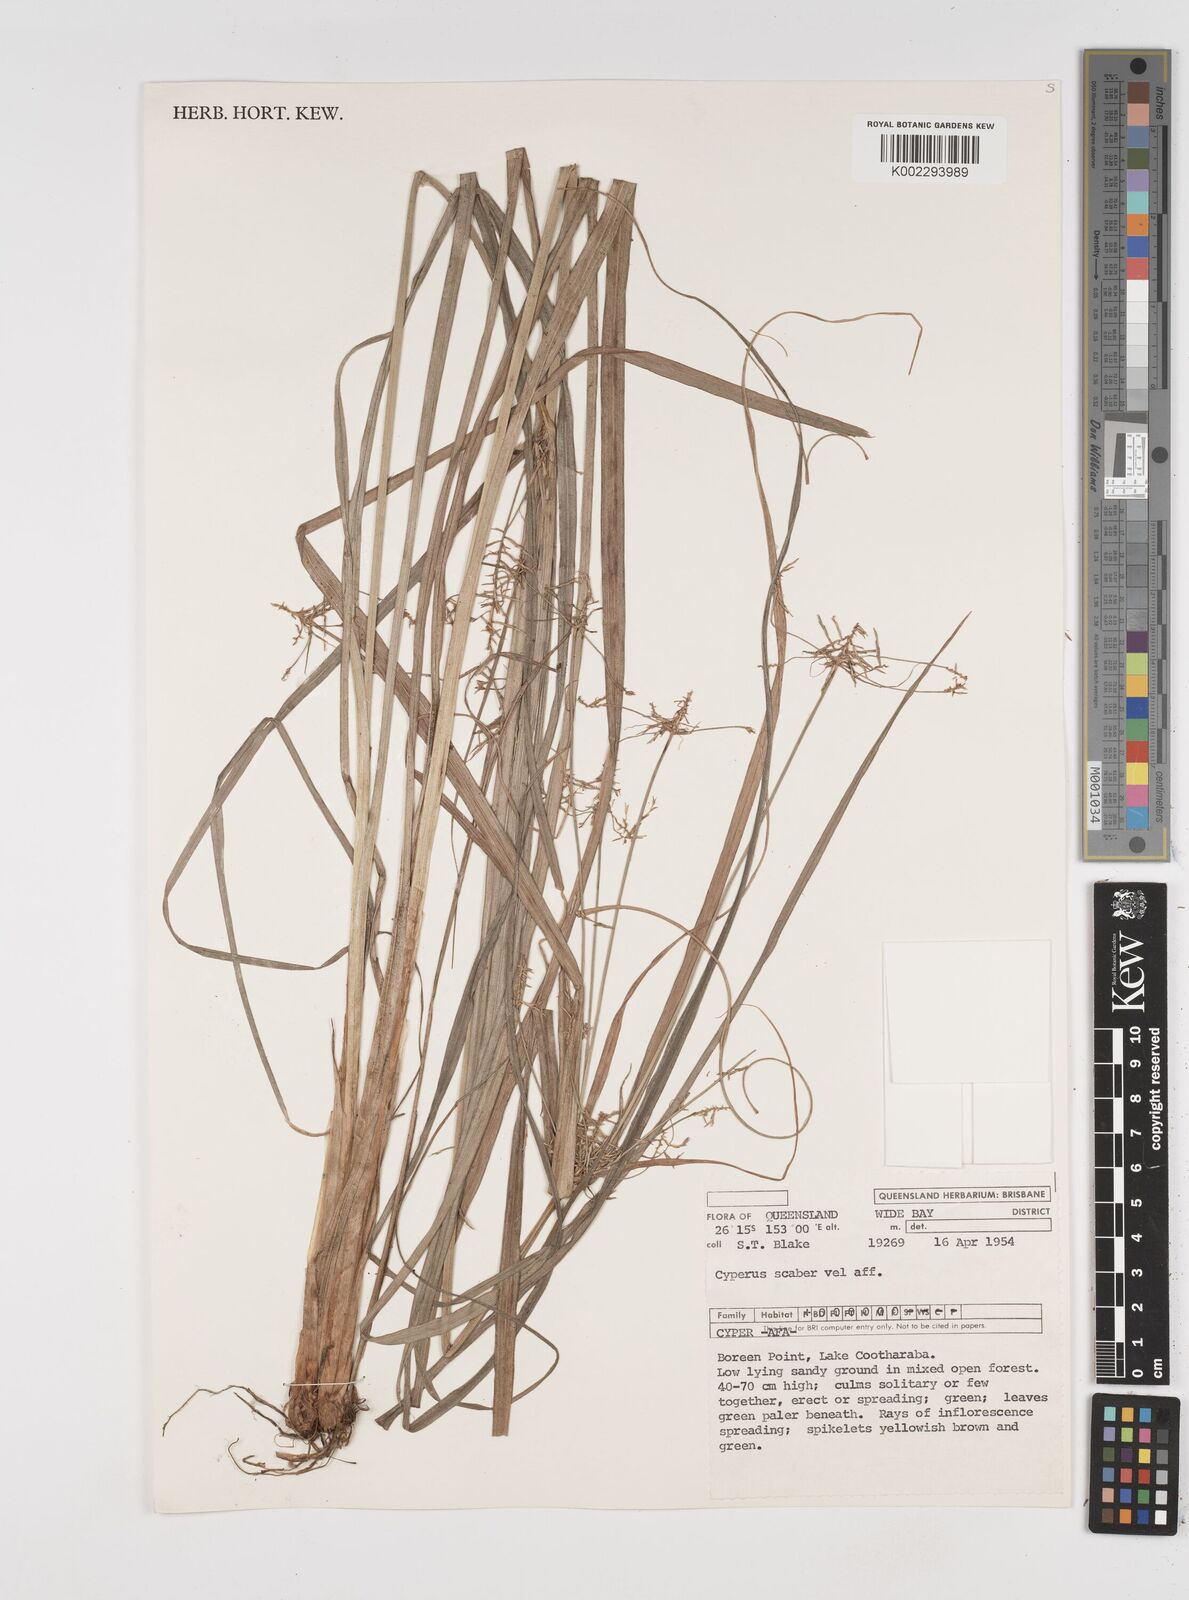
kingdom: Plantae
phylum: Tracheophyta
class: Liliopsida
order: Poales
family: Cyperaceae
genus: Cyperus
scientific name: Cyperus scaber
